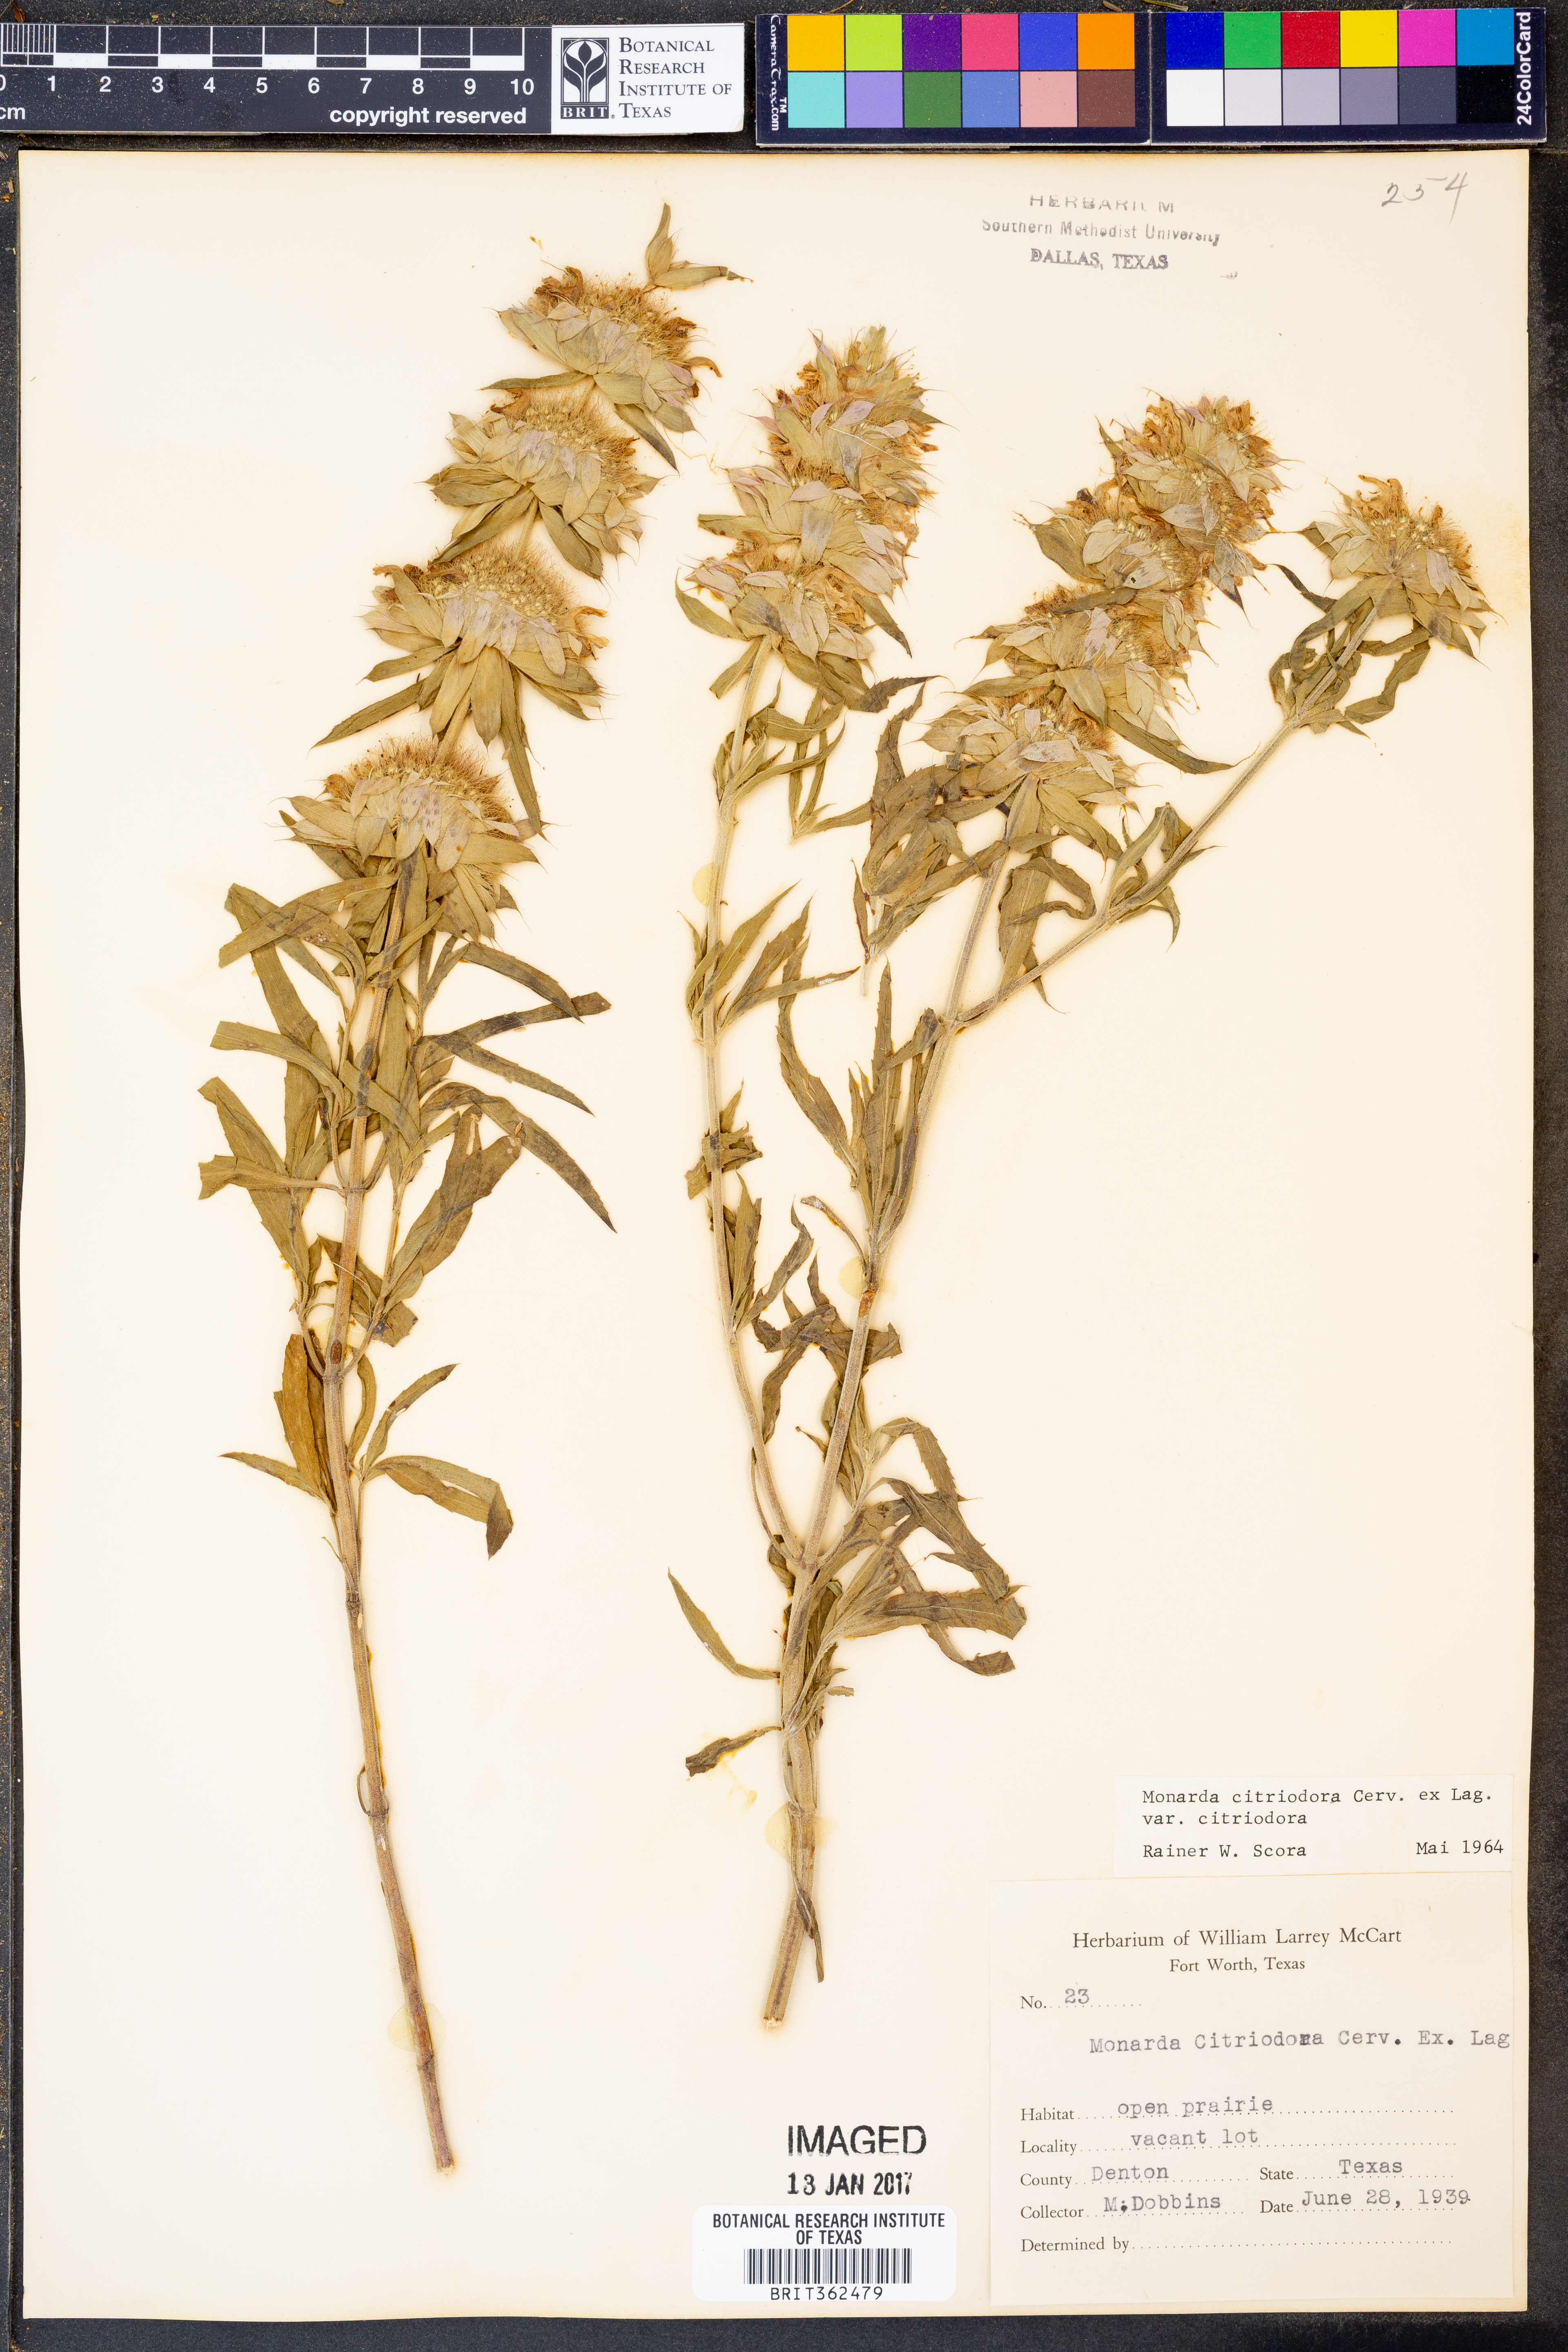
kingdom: Plantae
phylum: Tracheophyta
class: Magnoliopsida
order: Lamiales
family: Lamiaceae
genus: Monarda
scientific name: Monarda citriodora
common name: Lemon beebalm
